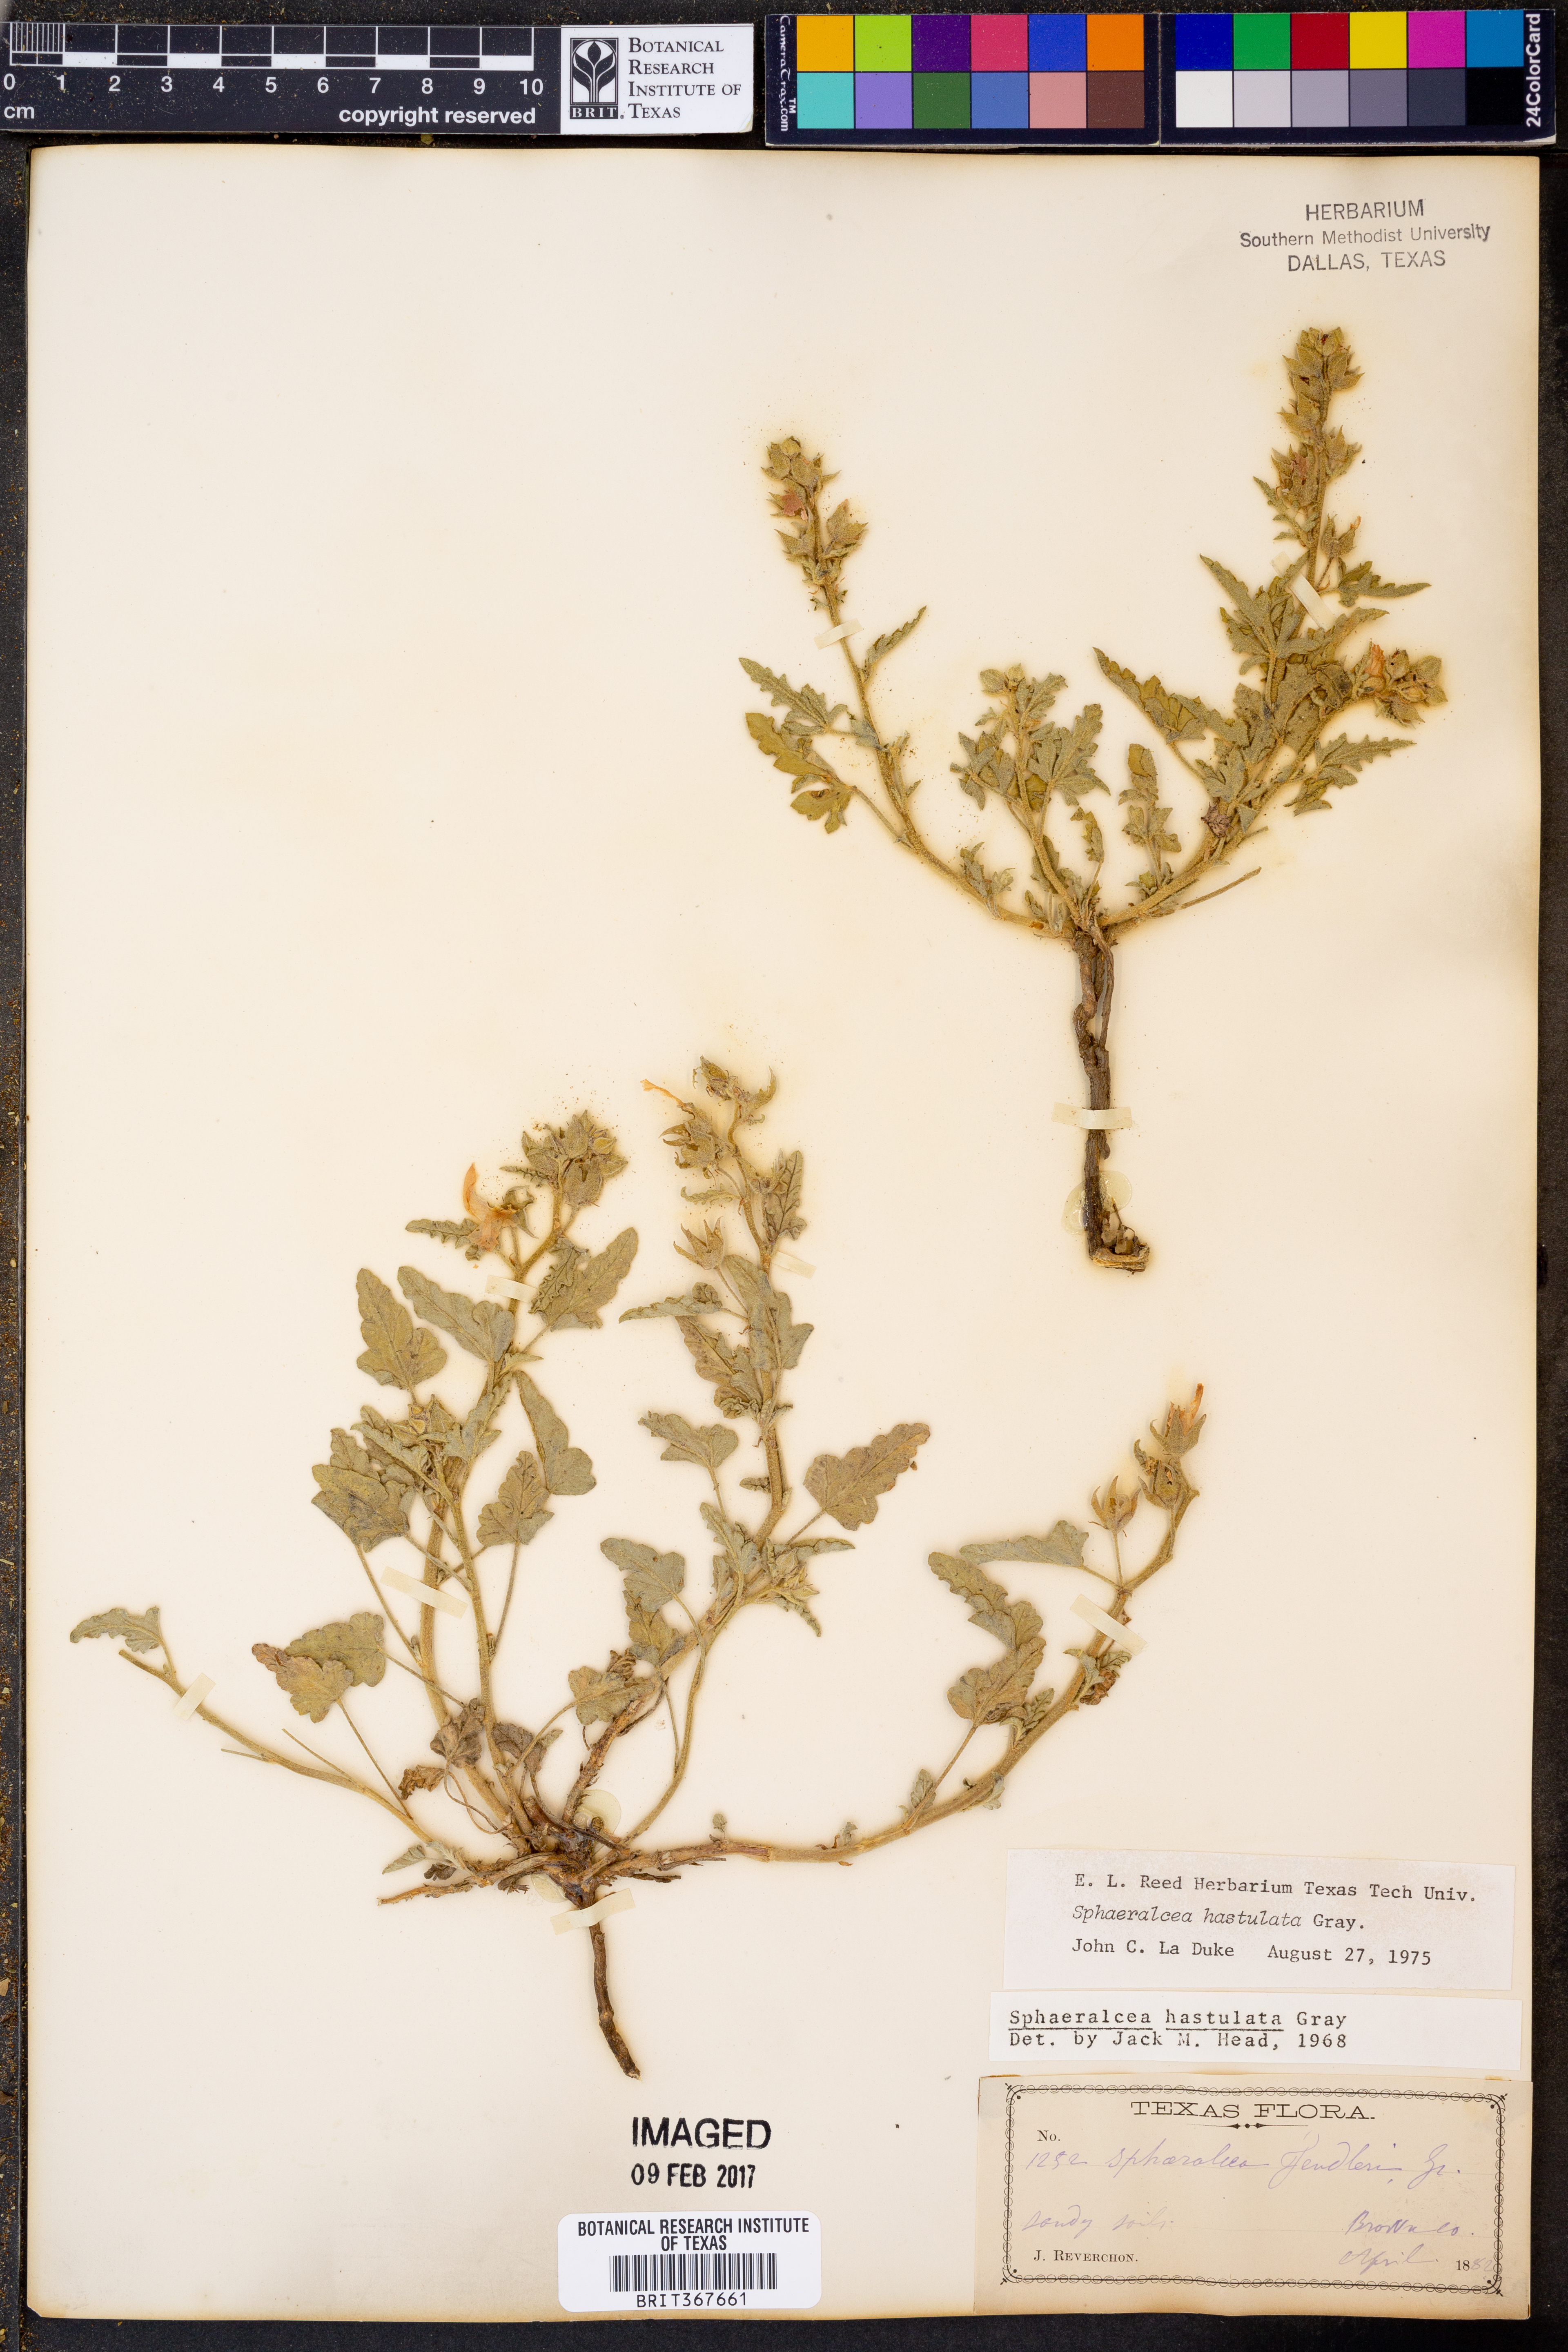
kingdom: Plantae
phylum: Tracheophyta
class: Magnoliopsida
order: Malvales
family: Malvaceae
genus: Sphaeralcea
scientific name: Sphaeralcea hastulata
